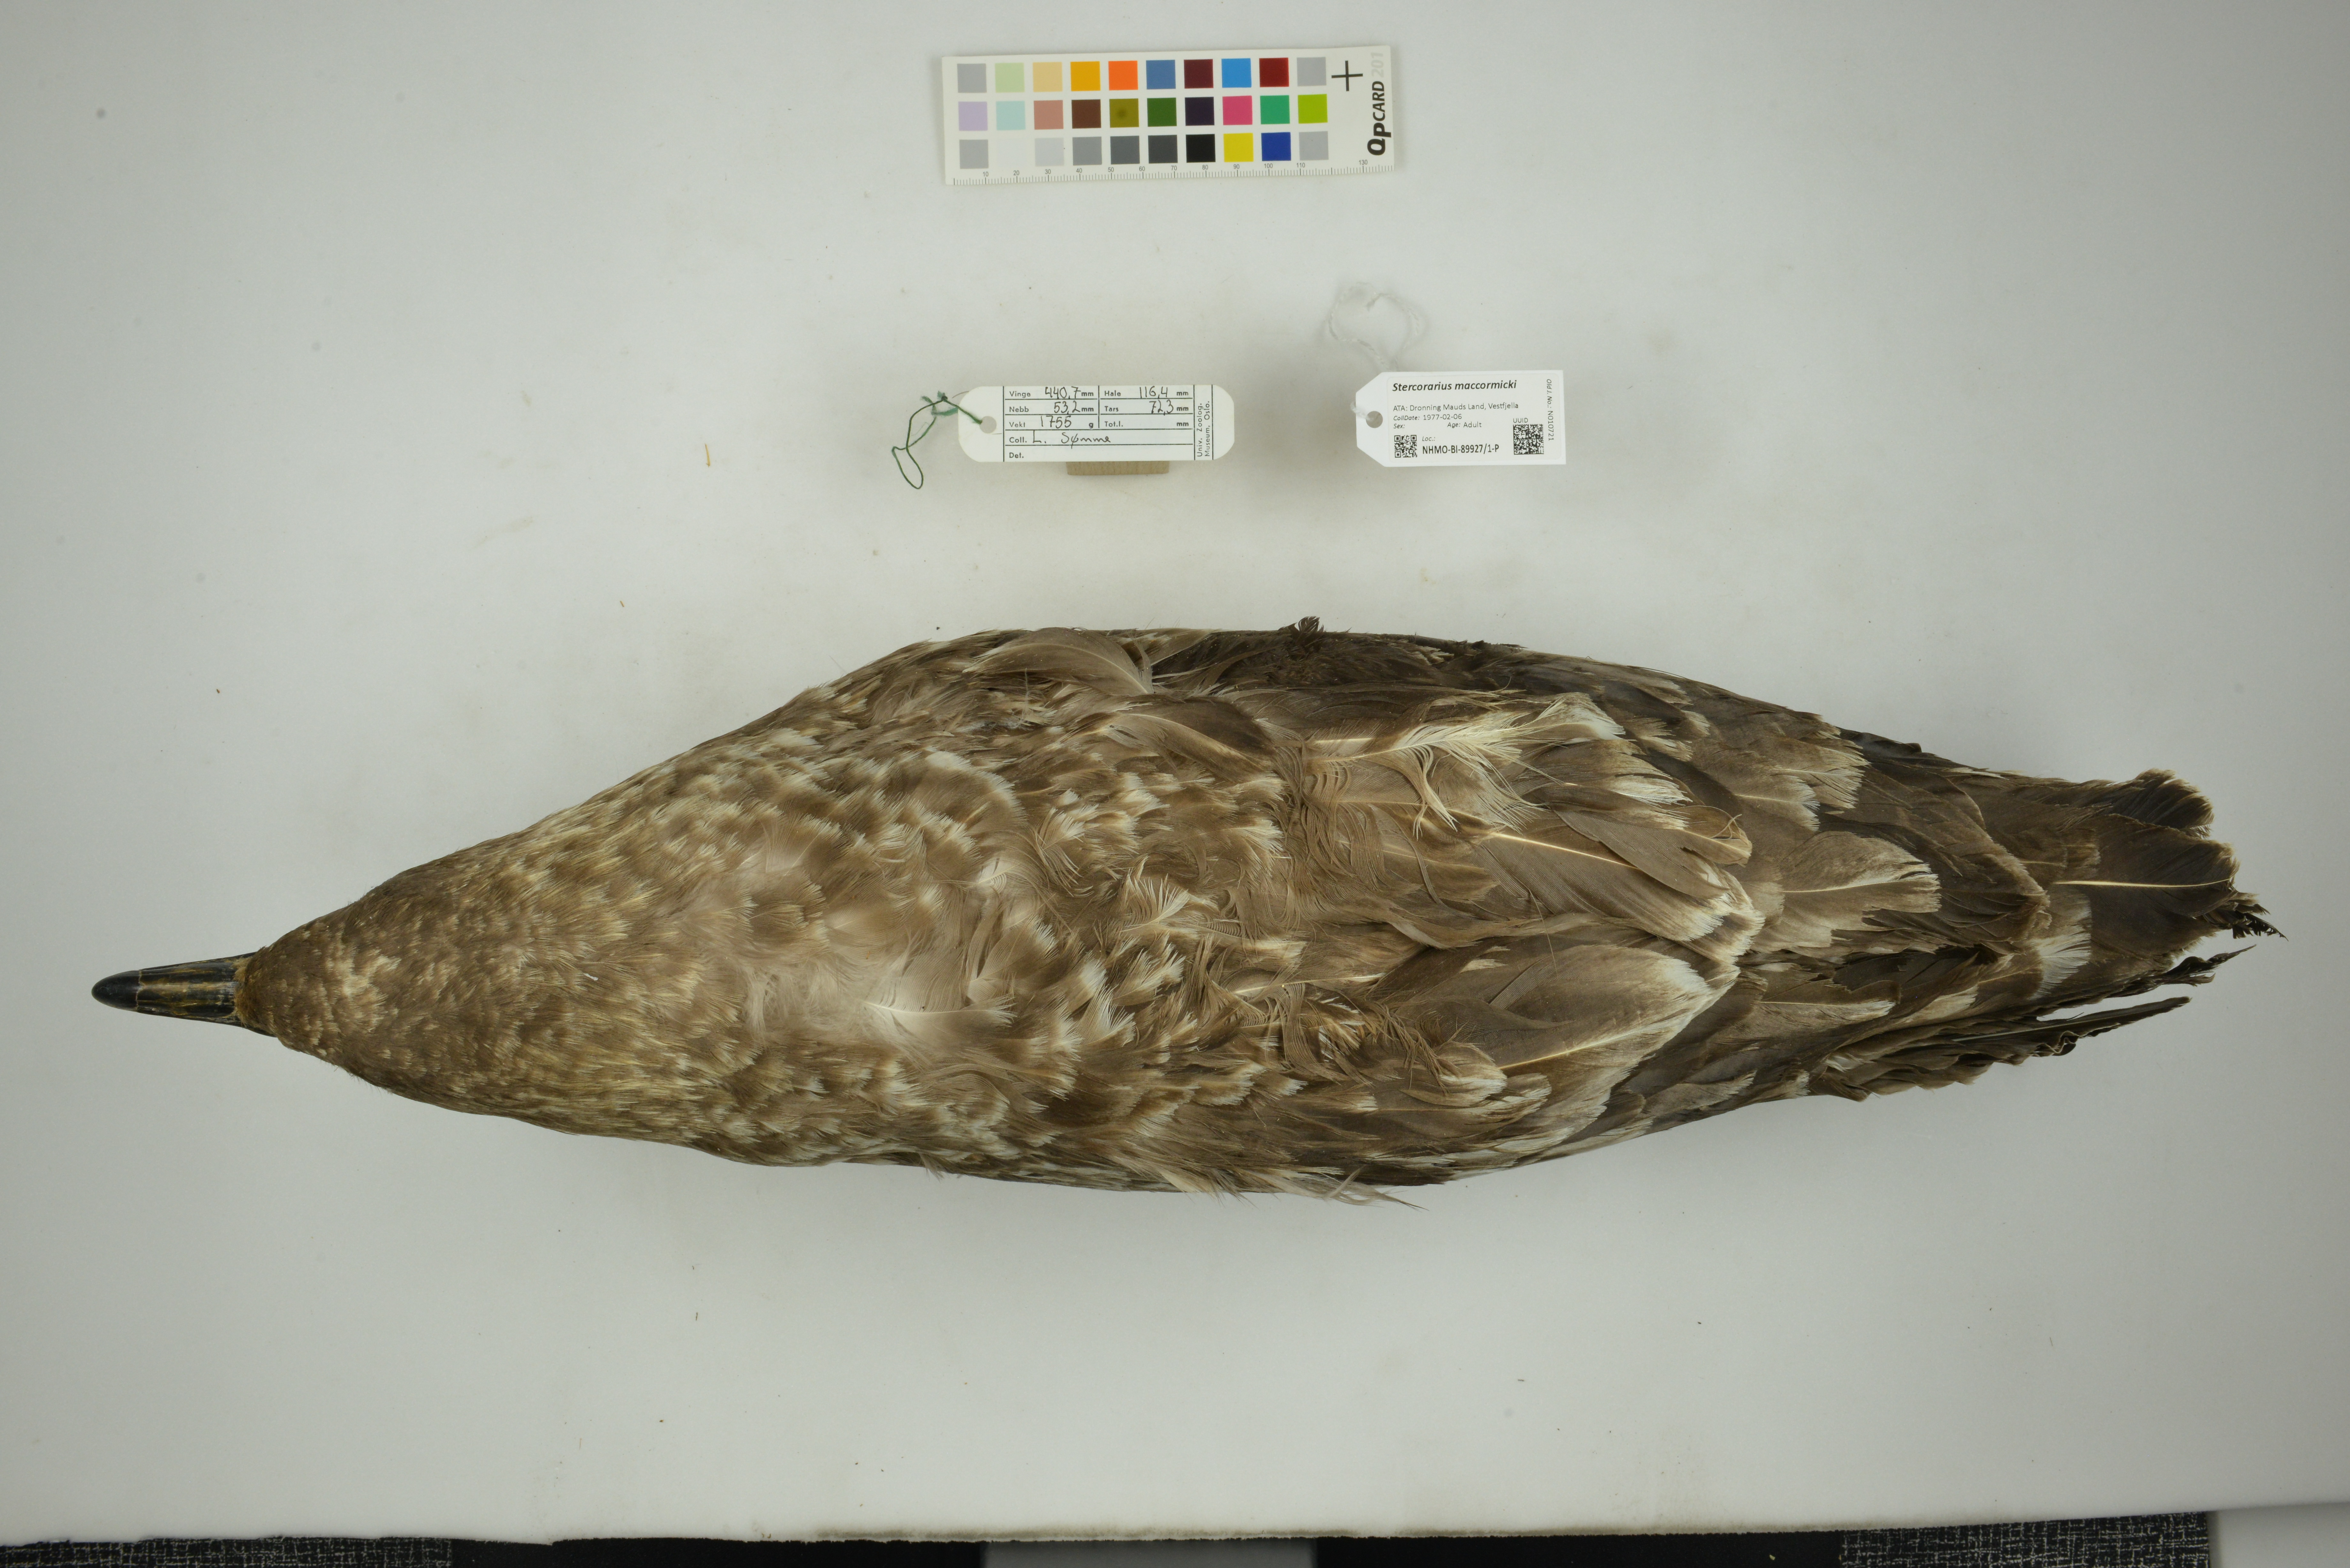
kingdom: Animalia
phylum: Chordata
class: Aves
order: Charadriiformes
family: Stercorariidae
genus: Stercorarius
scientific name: Stercorarius maccormicki
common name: South polar skua
